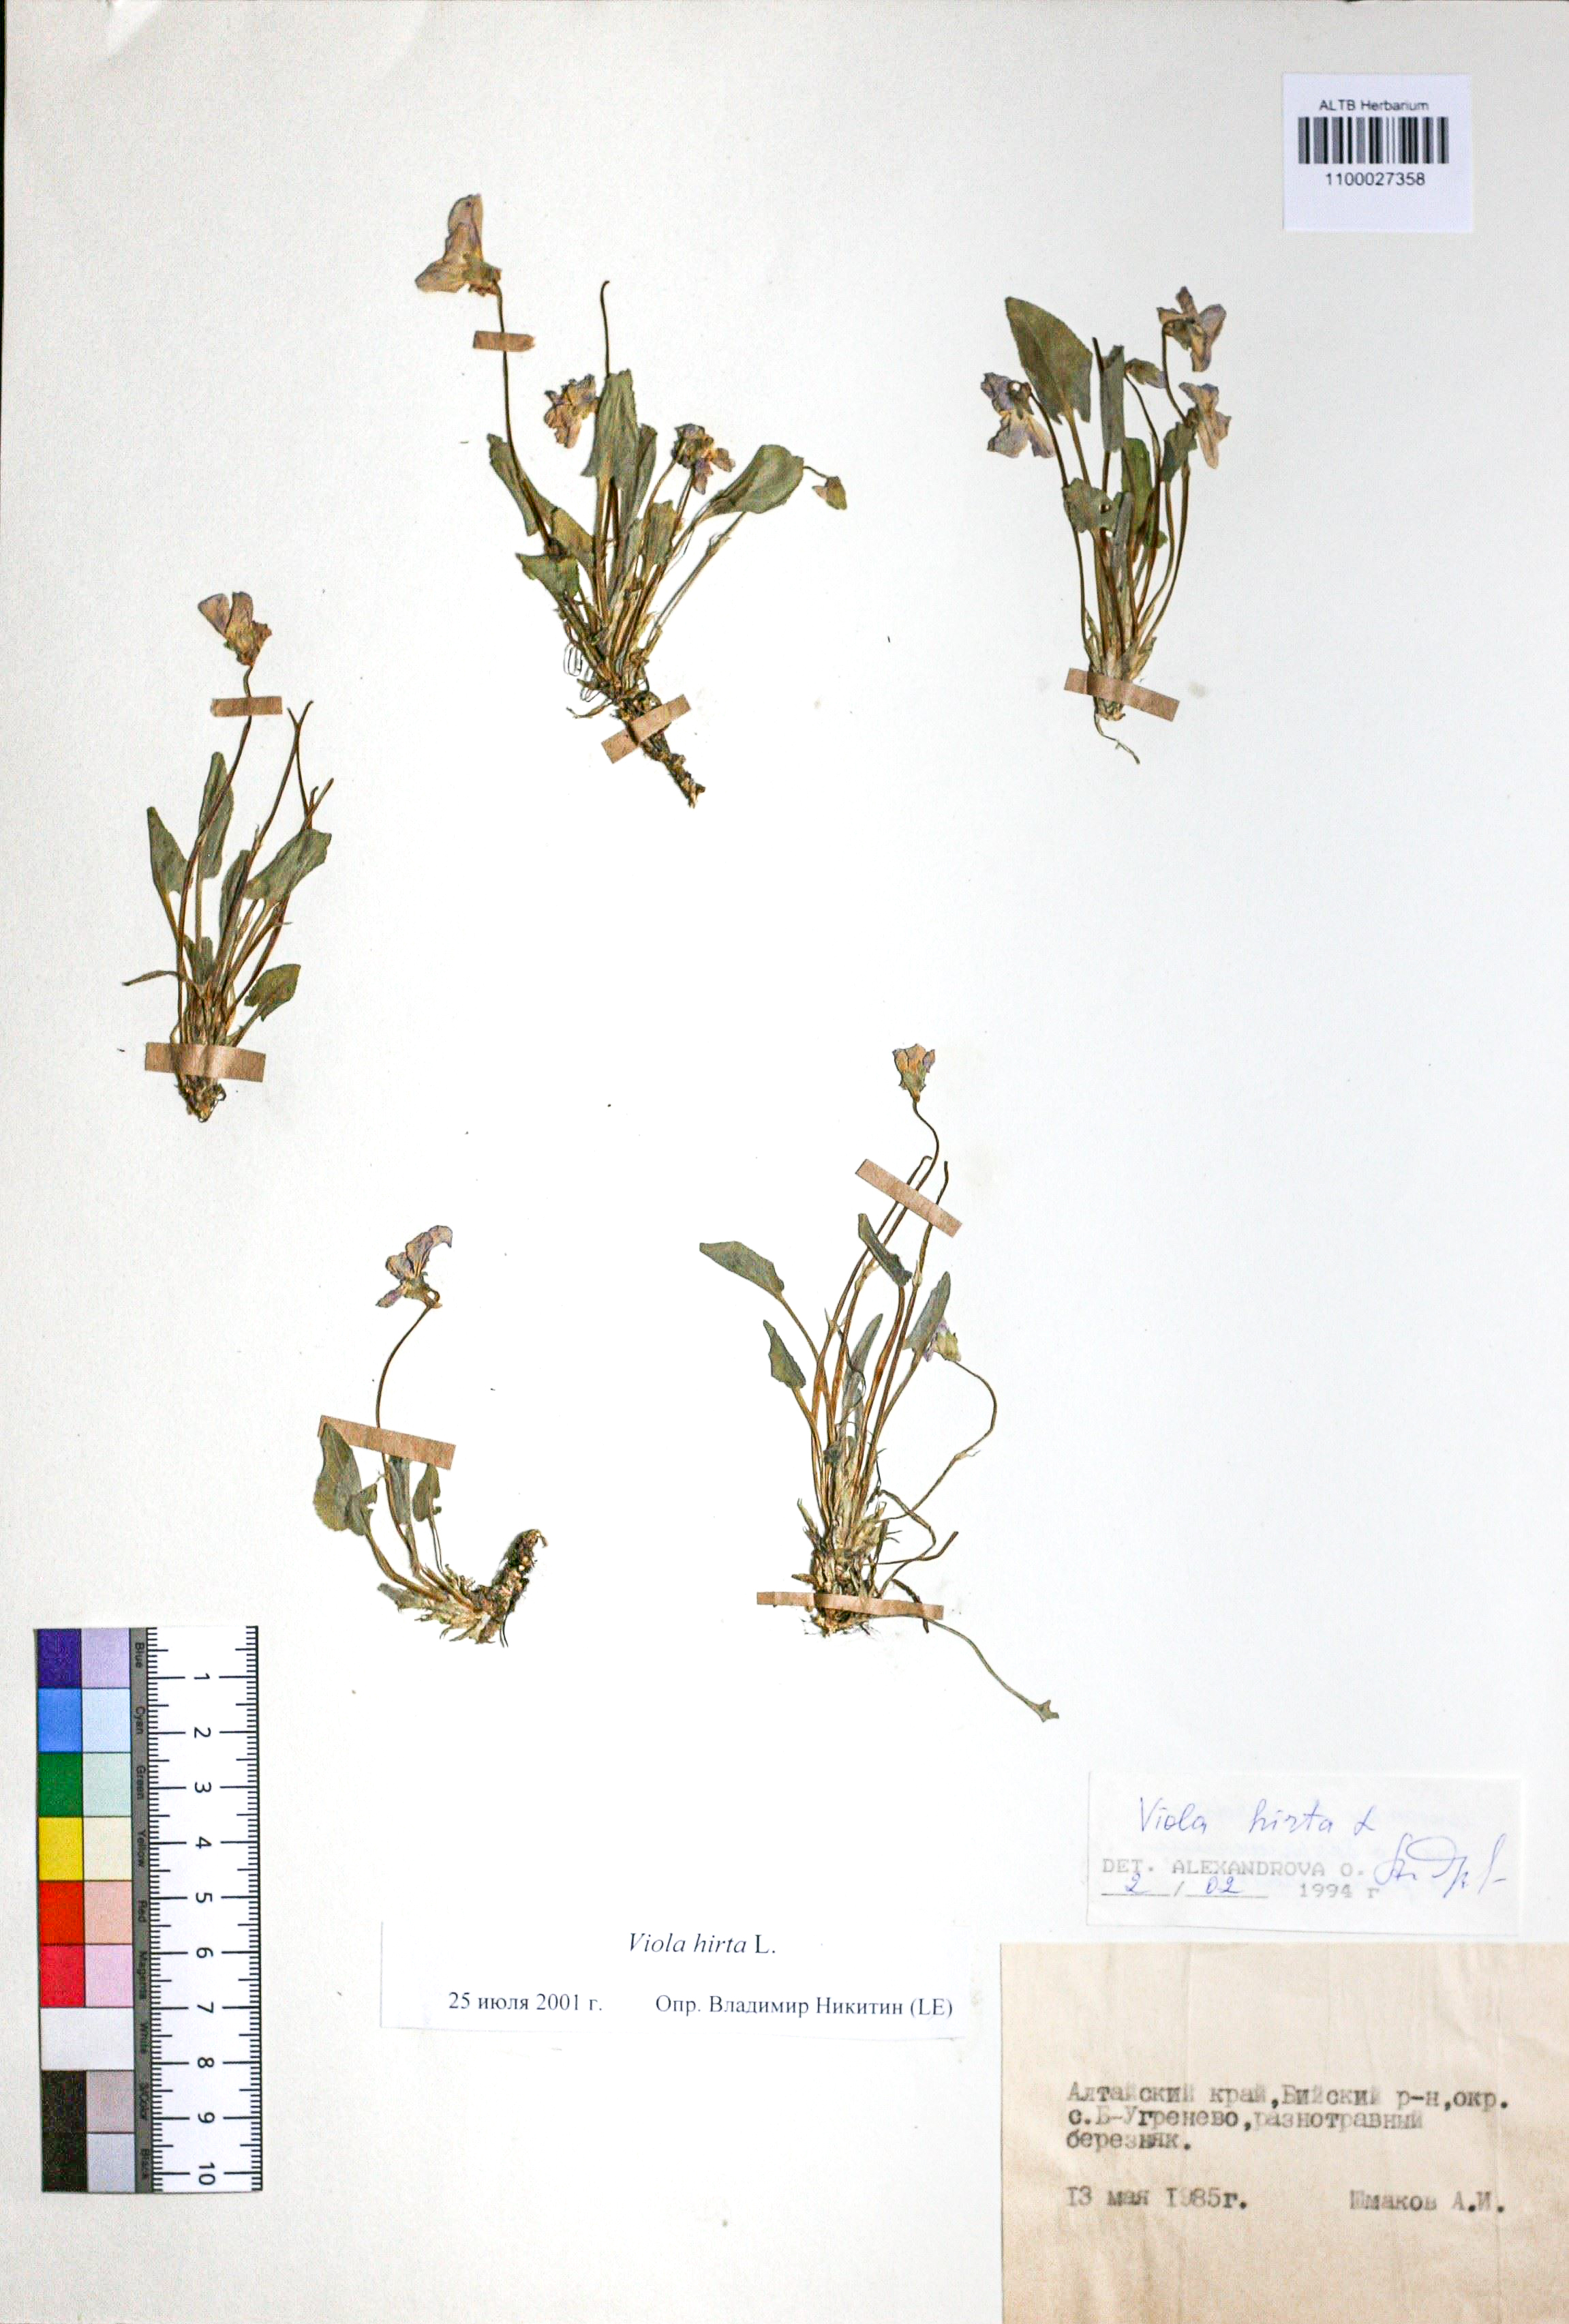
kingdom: Plantae
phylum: Tracheophyta
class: Magnoliopsida
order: Malpighiales
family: Violaceae
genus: Viola
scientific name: Viola hirta
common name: Hairy violet
